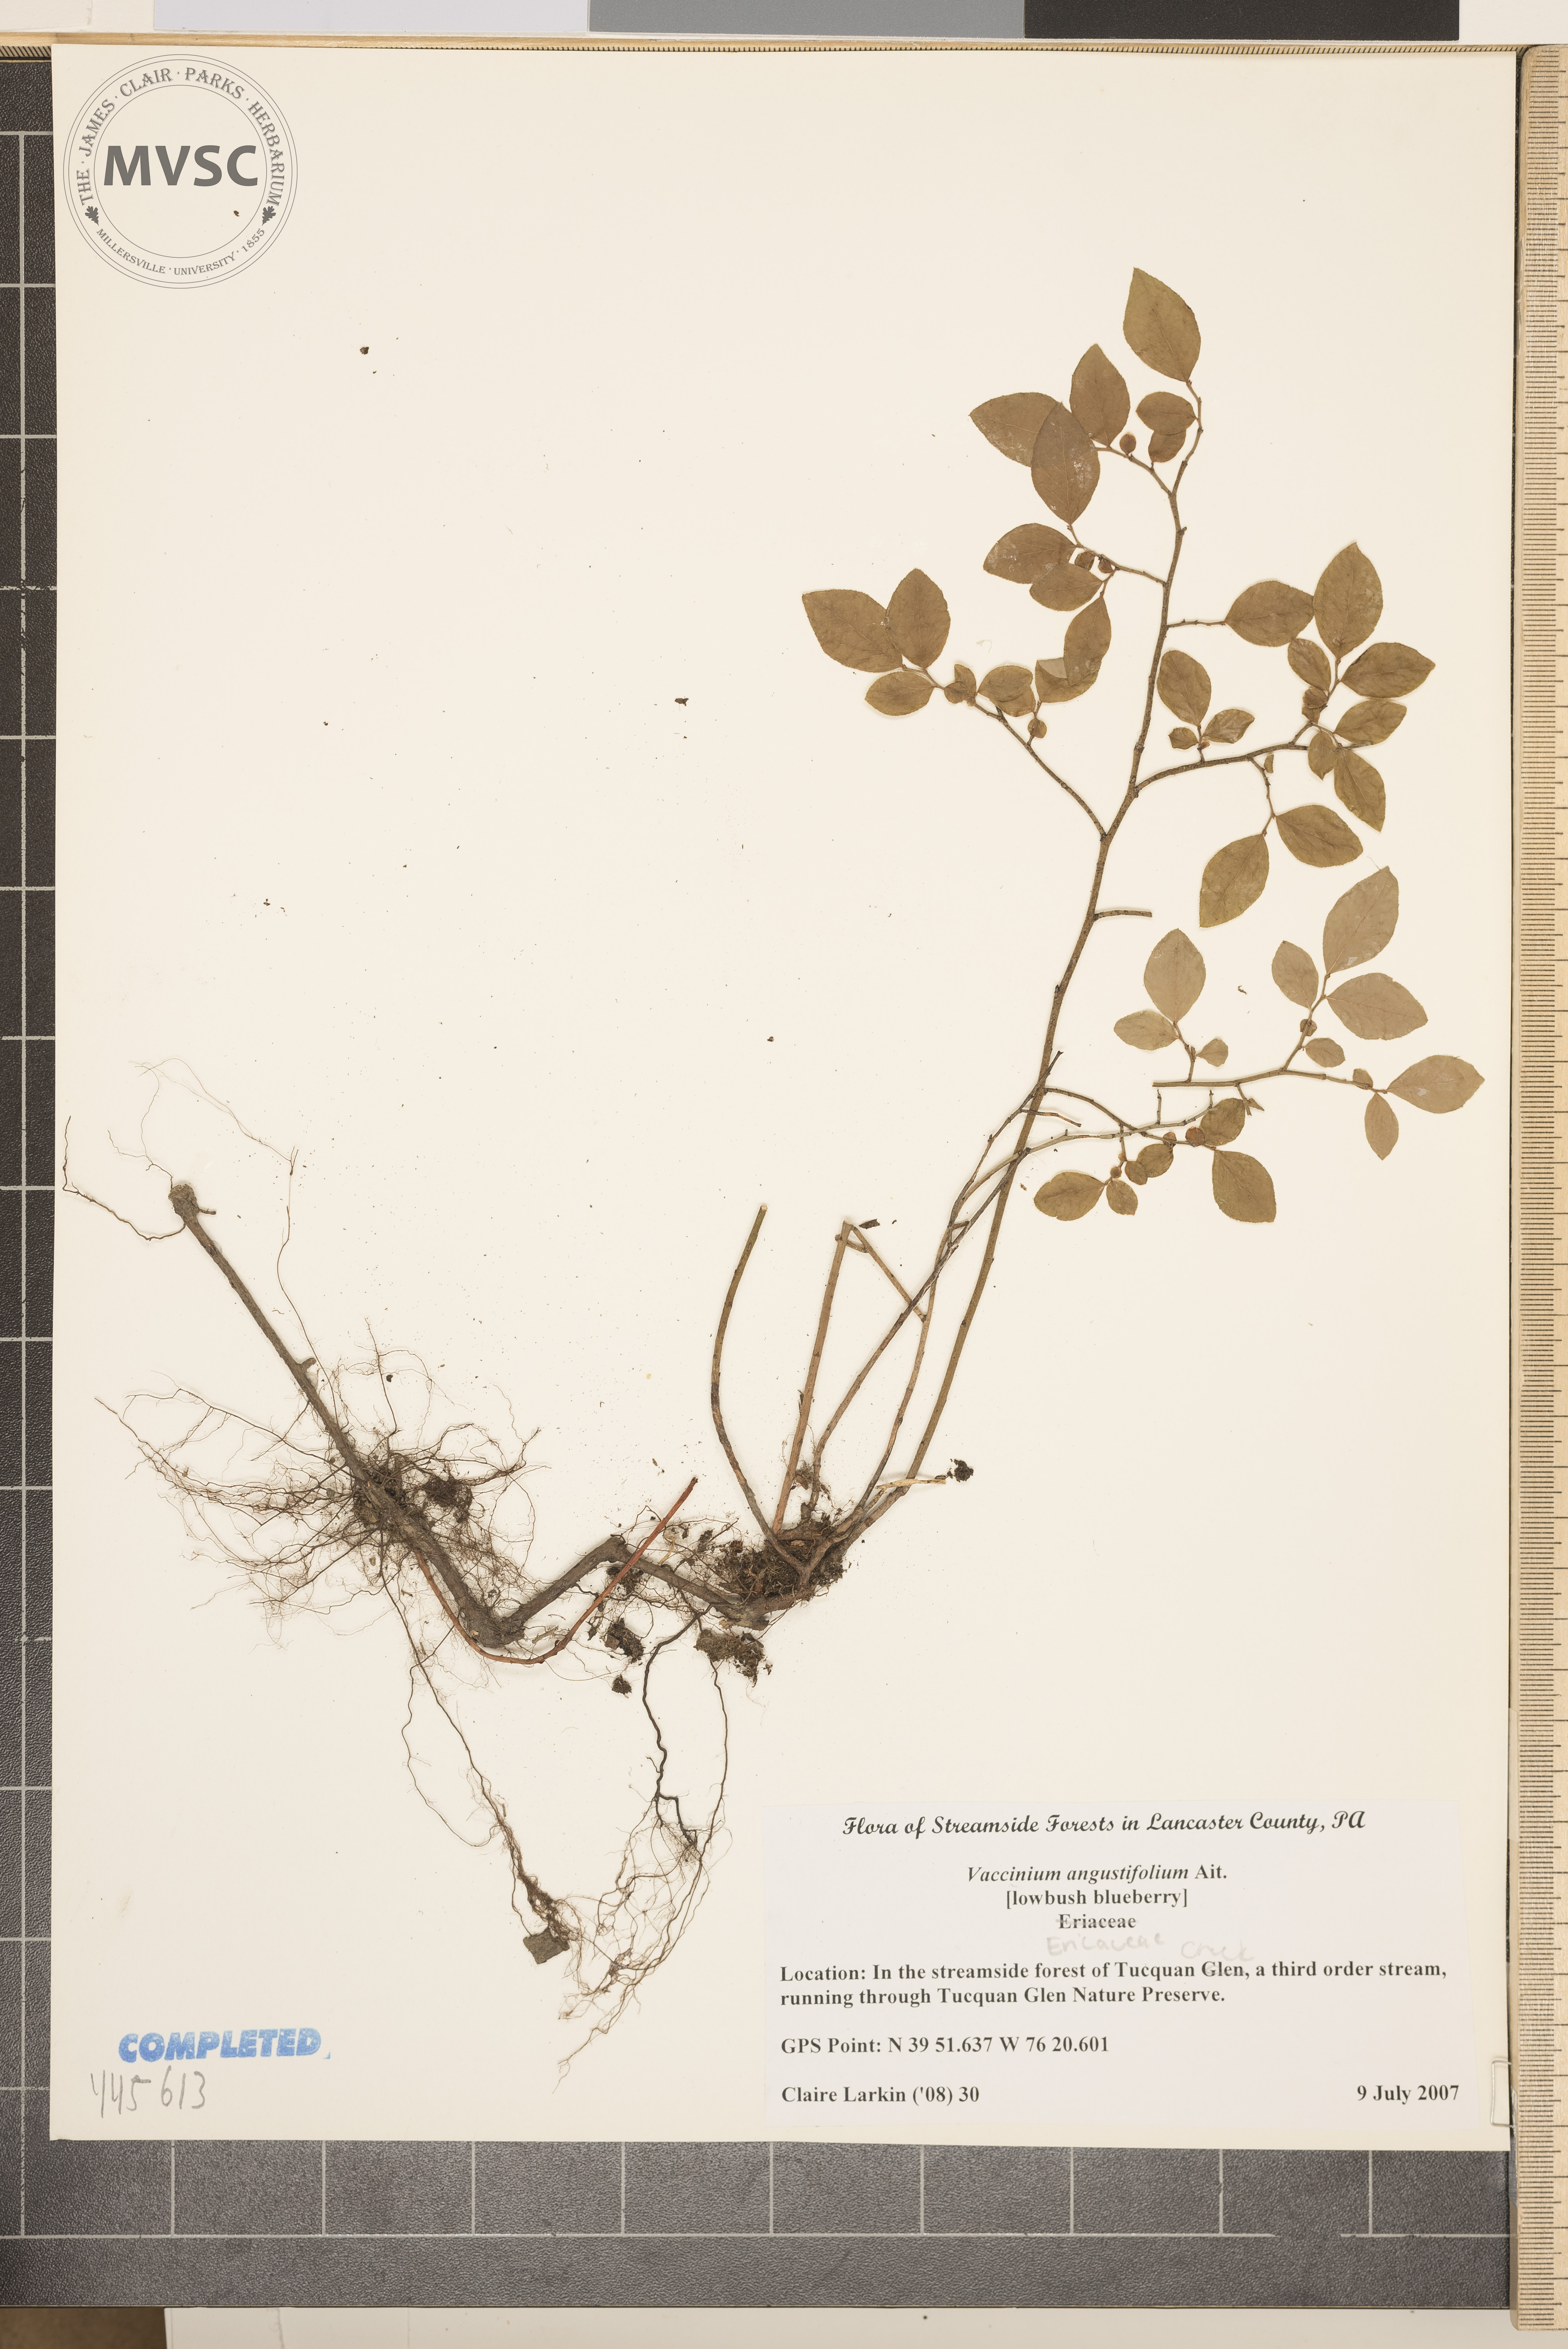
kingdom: Plantae
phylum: Tracheophyta
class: Magnoliopsida
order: Ericales
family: Ericaceae
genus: Vaccinium
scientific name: Vaccinium angustifolium
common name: Early lowbush blueberry
